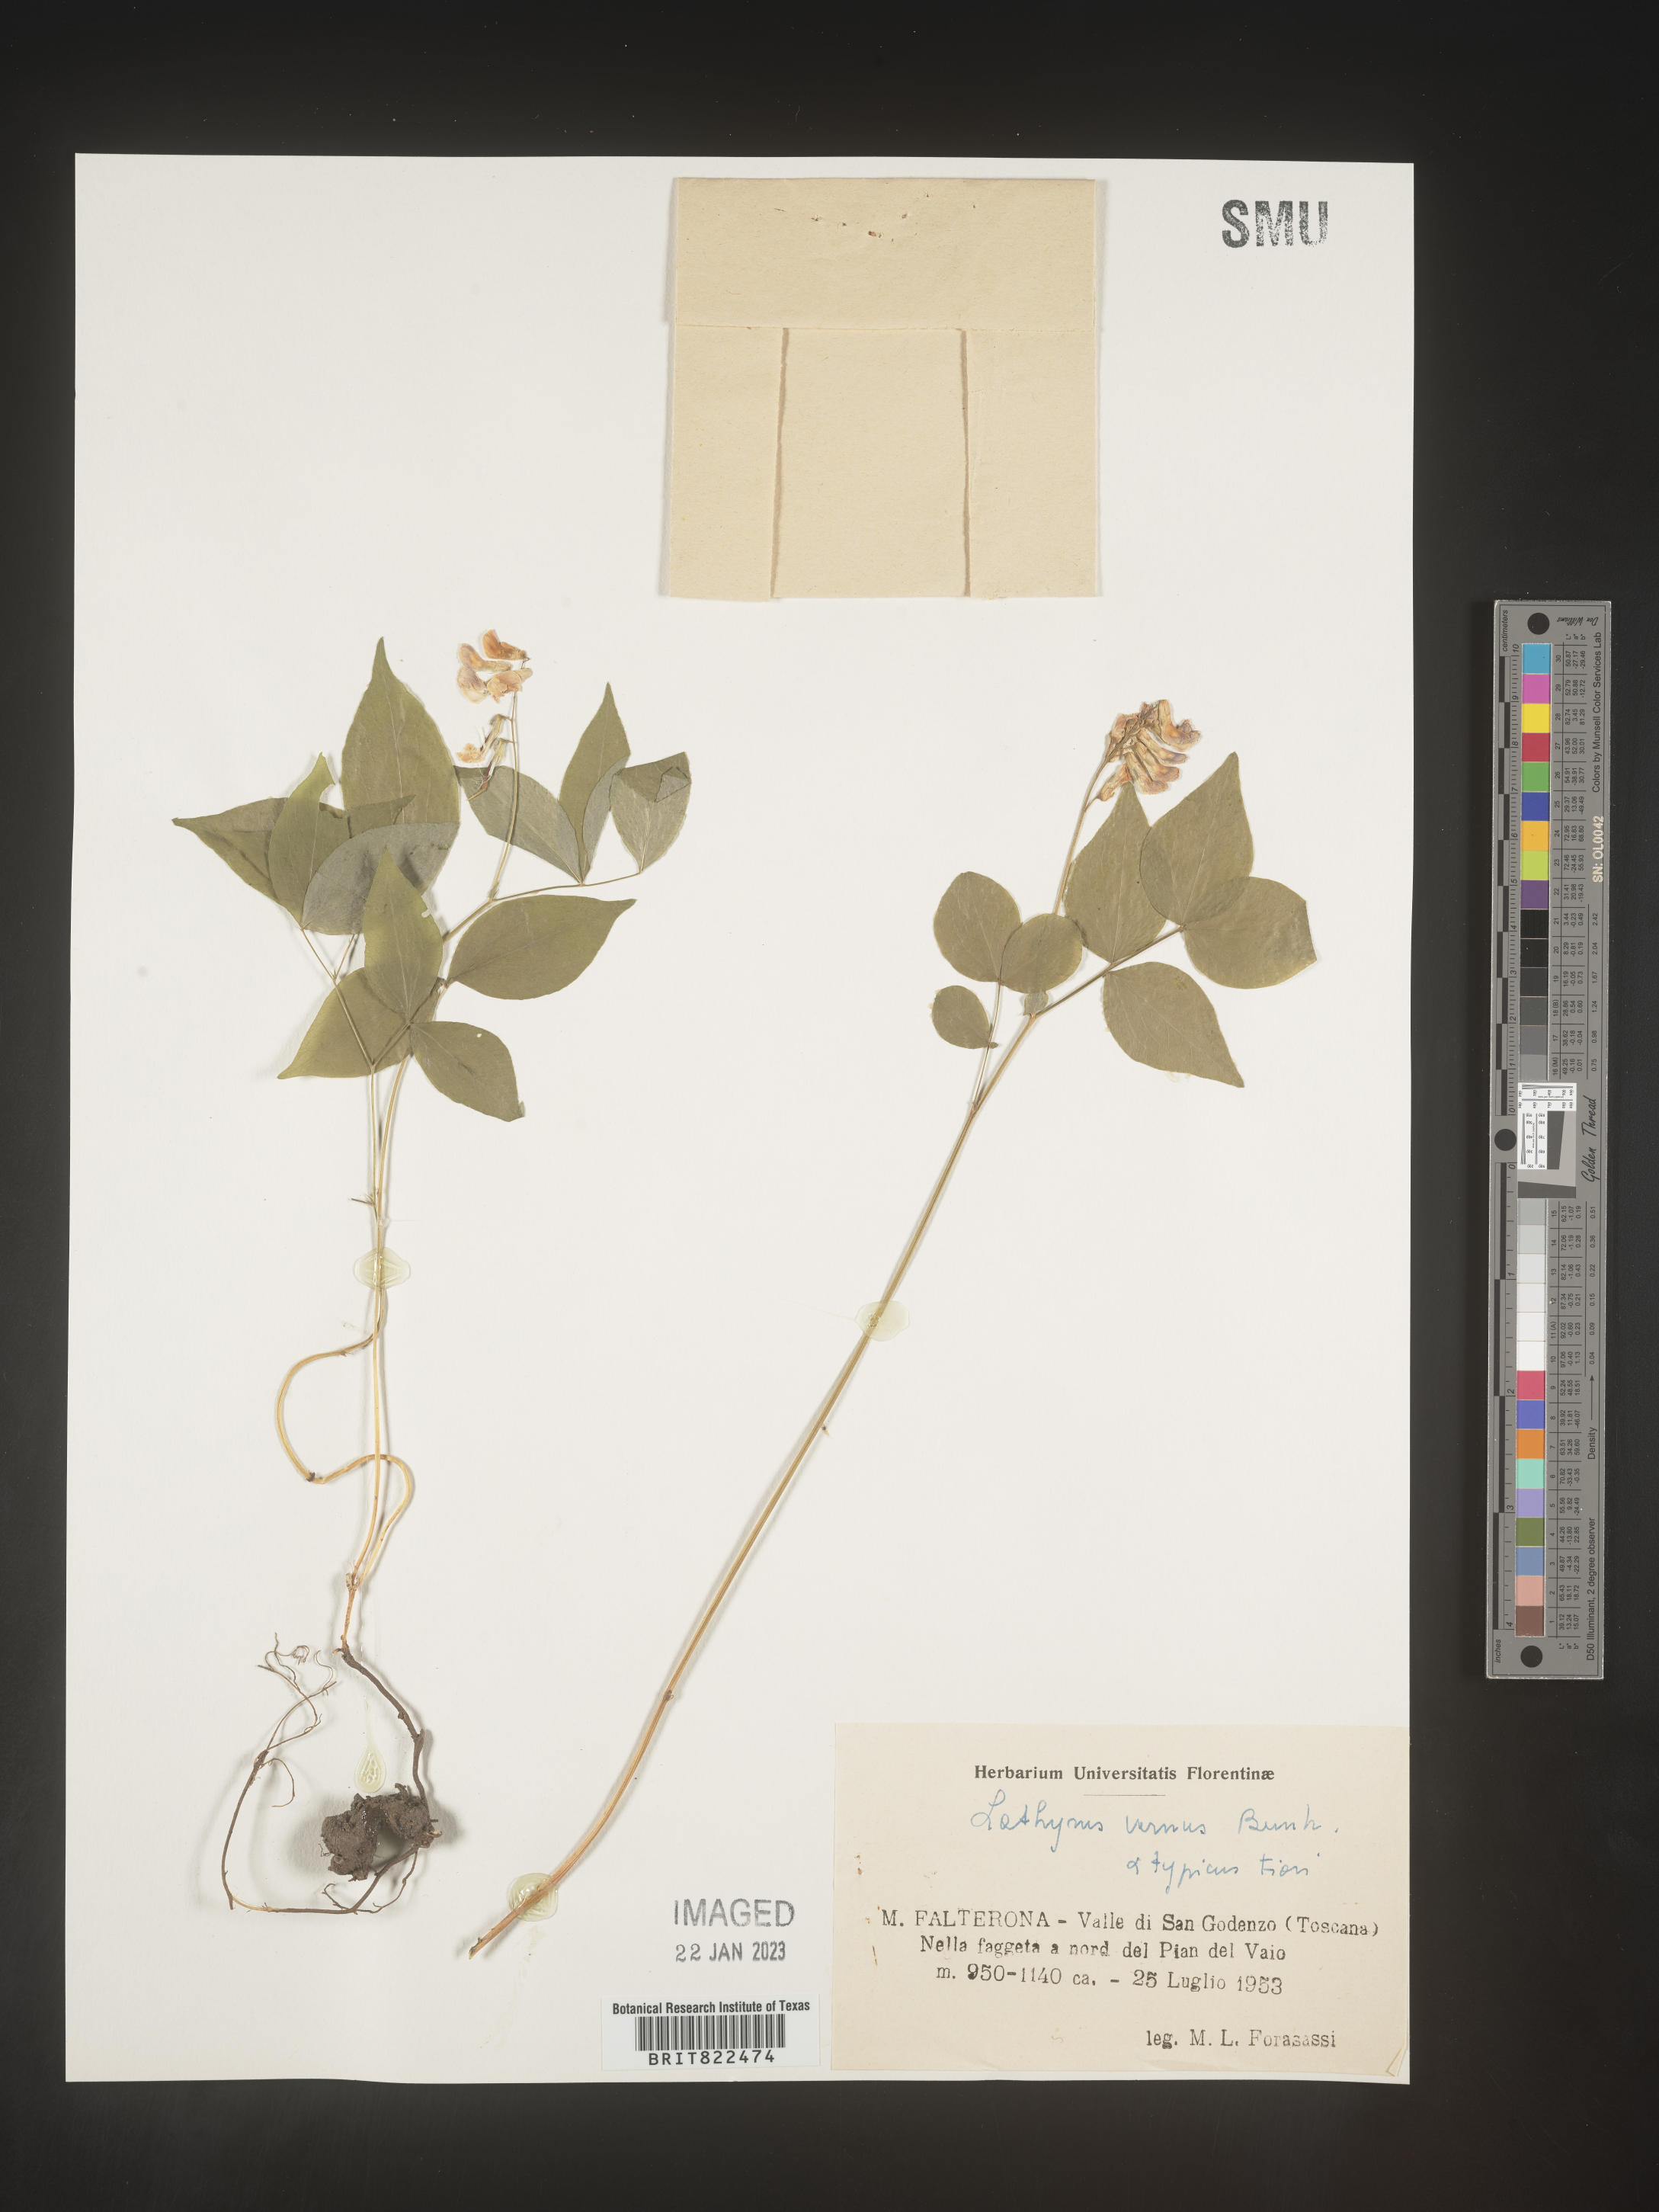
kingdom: Plantae
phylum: Tracheophyta
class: Magnoliopsida
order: Fabales
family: Fabaceae
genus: Lathyrus
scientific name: Lathyrus
